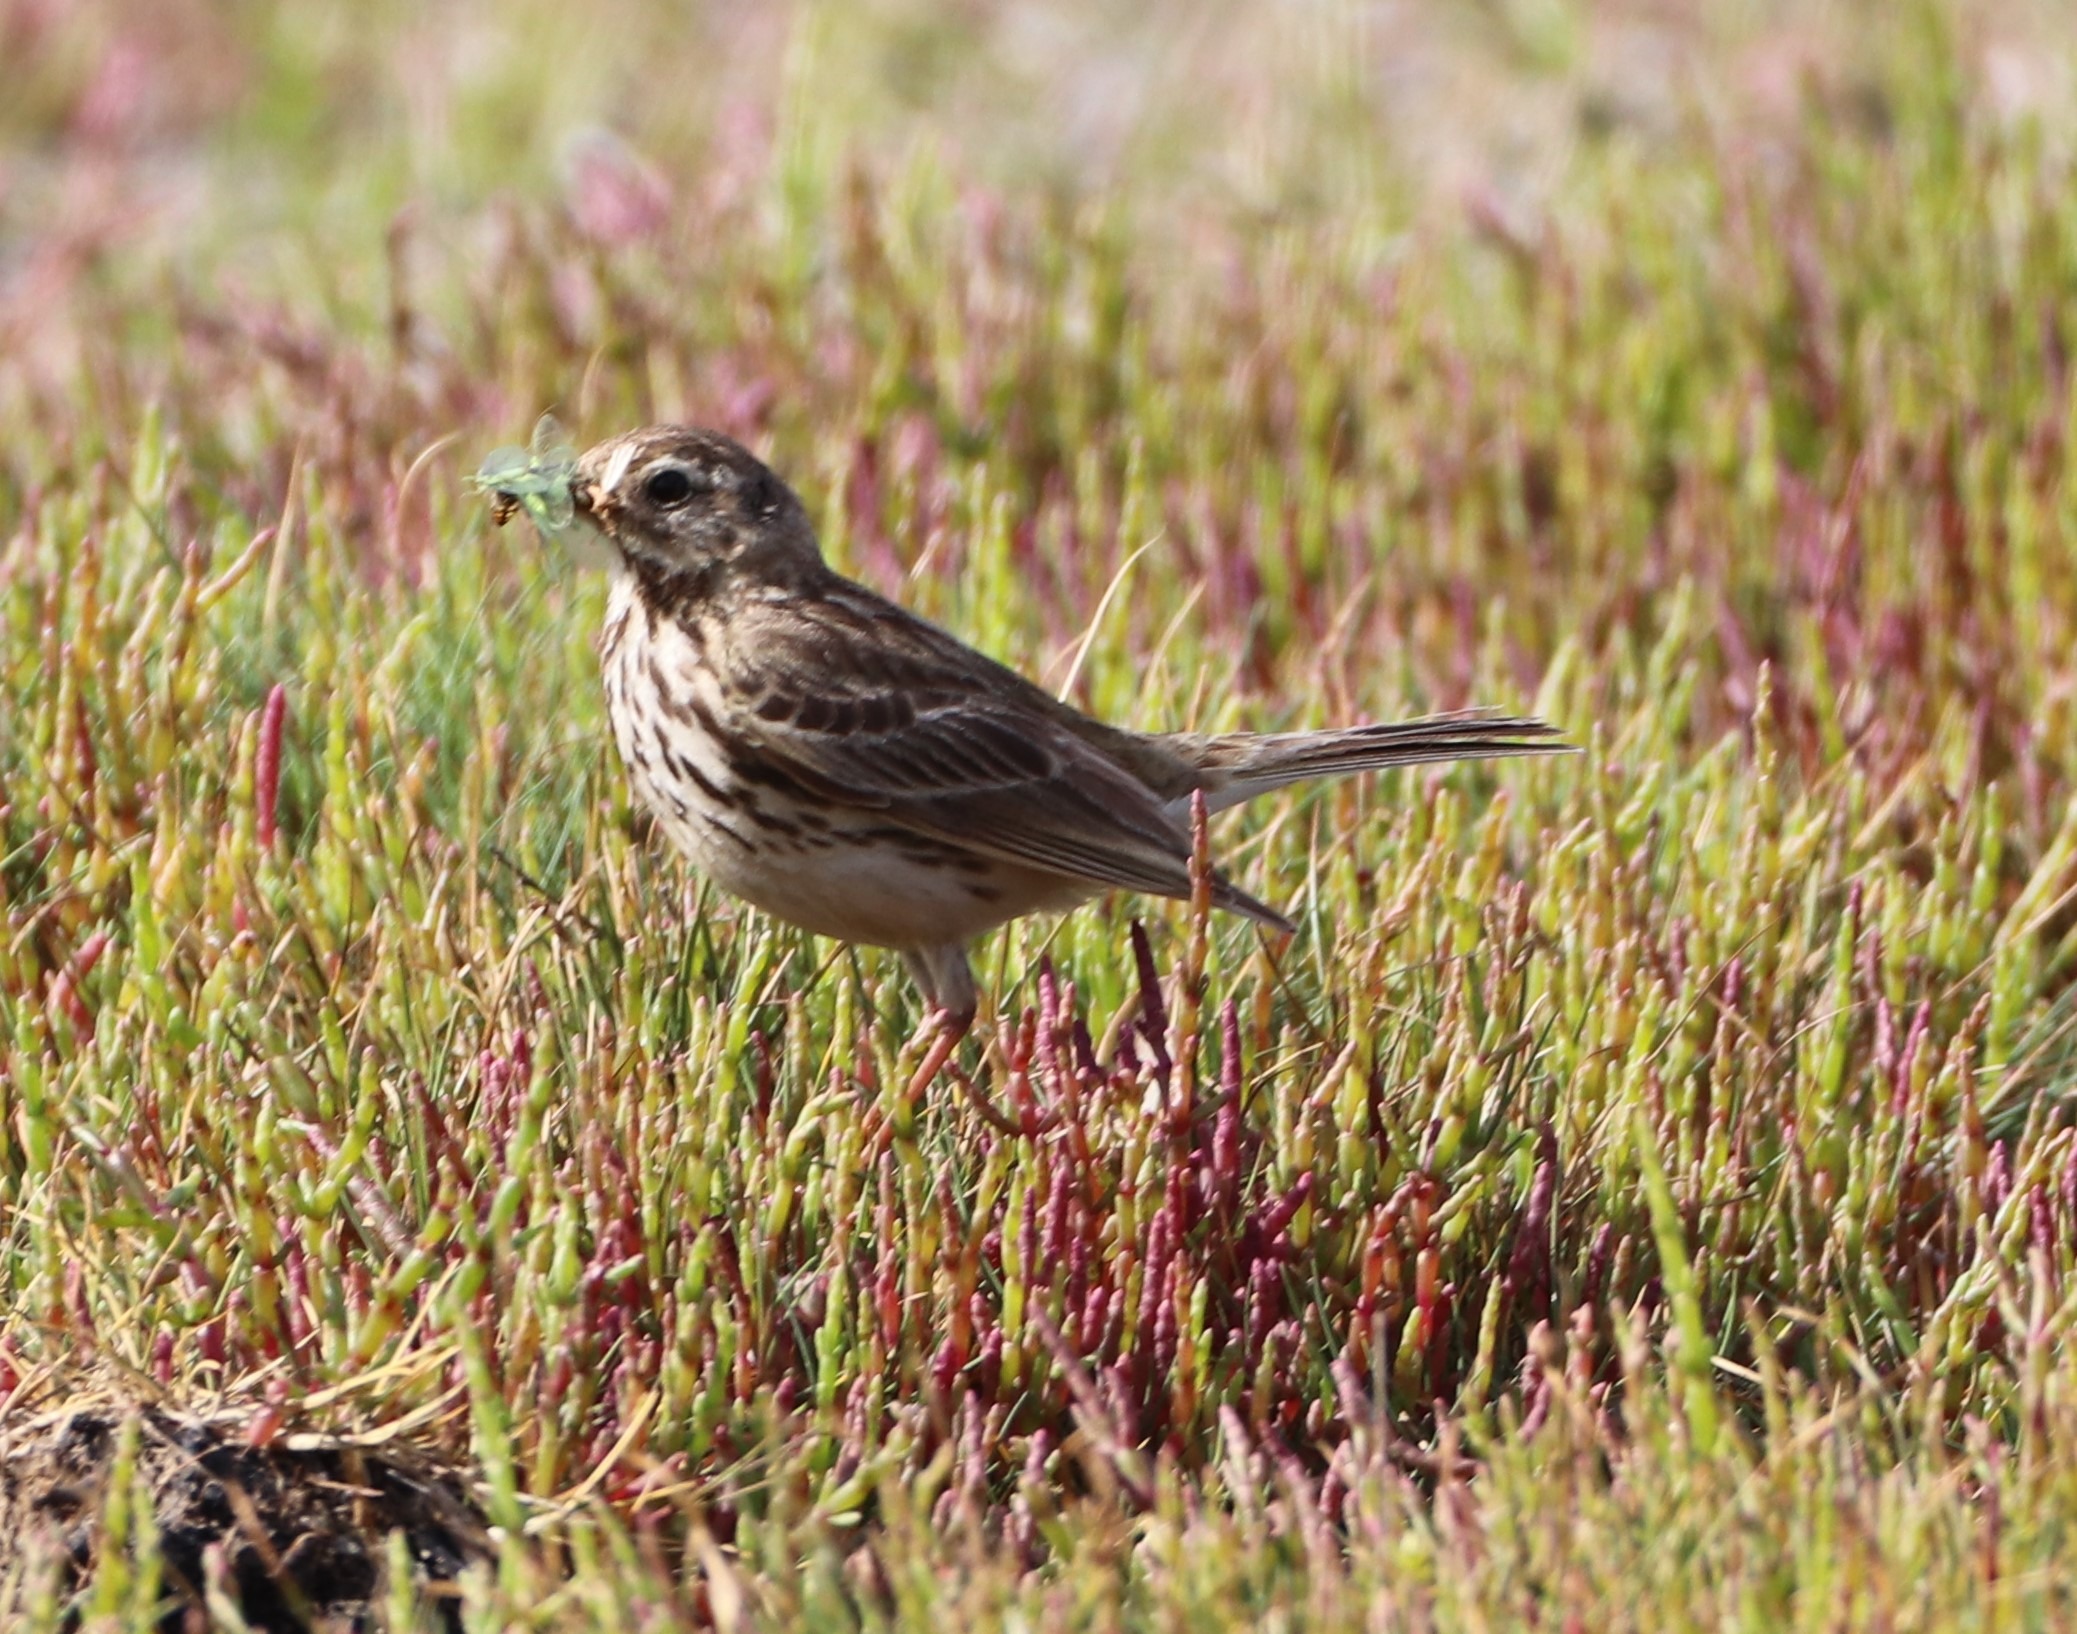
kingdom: Animalia
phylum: Chordata
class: Aves
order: Passeriformes
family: Motacillidae
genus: Anthus
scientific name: Anthus pratensis
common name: Engpiber
